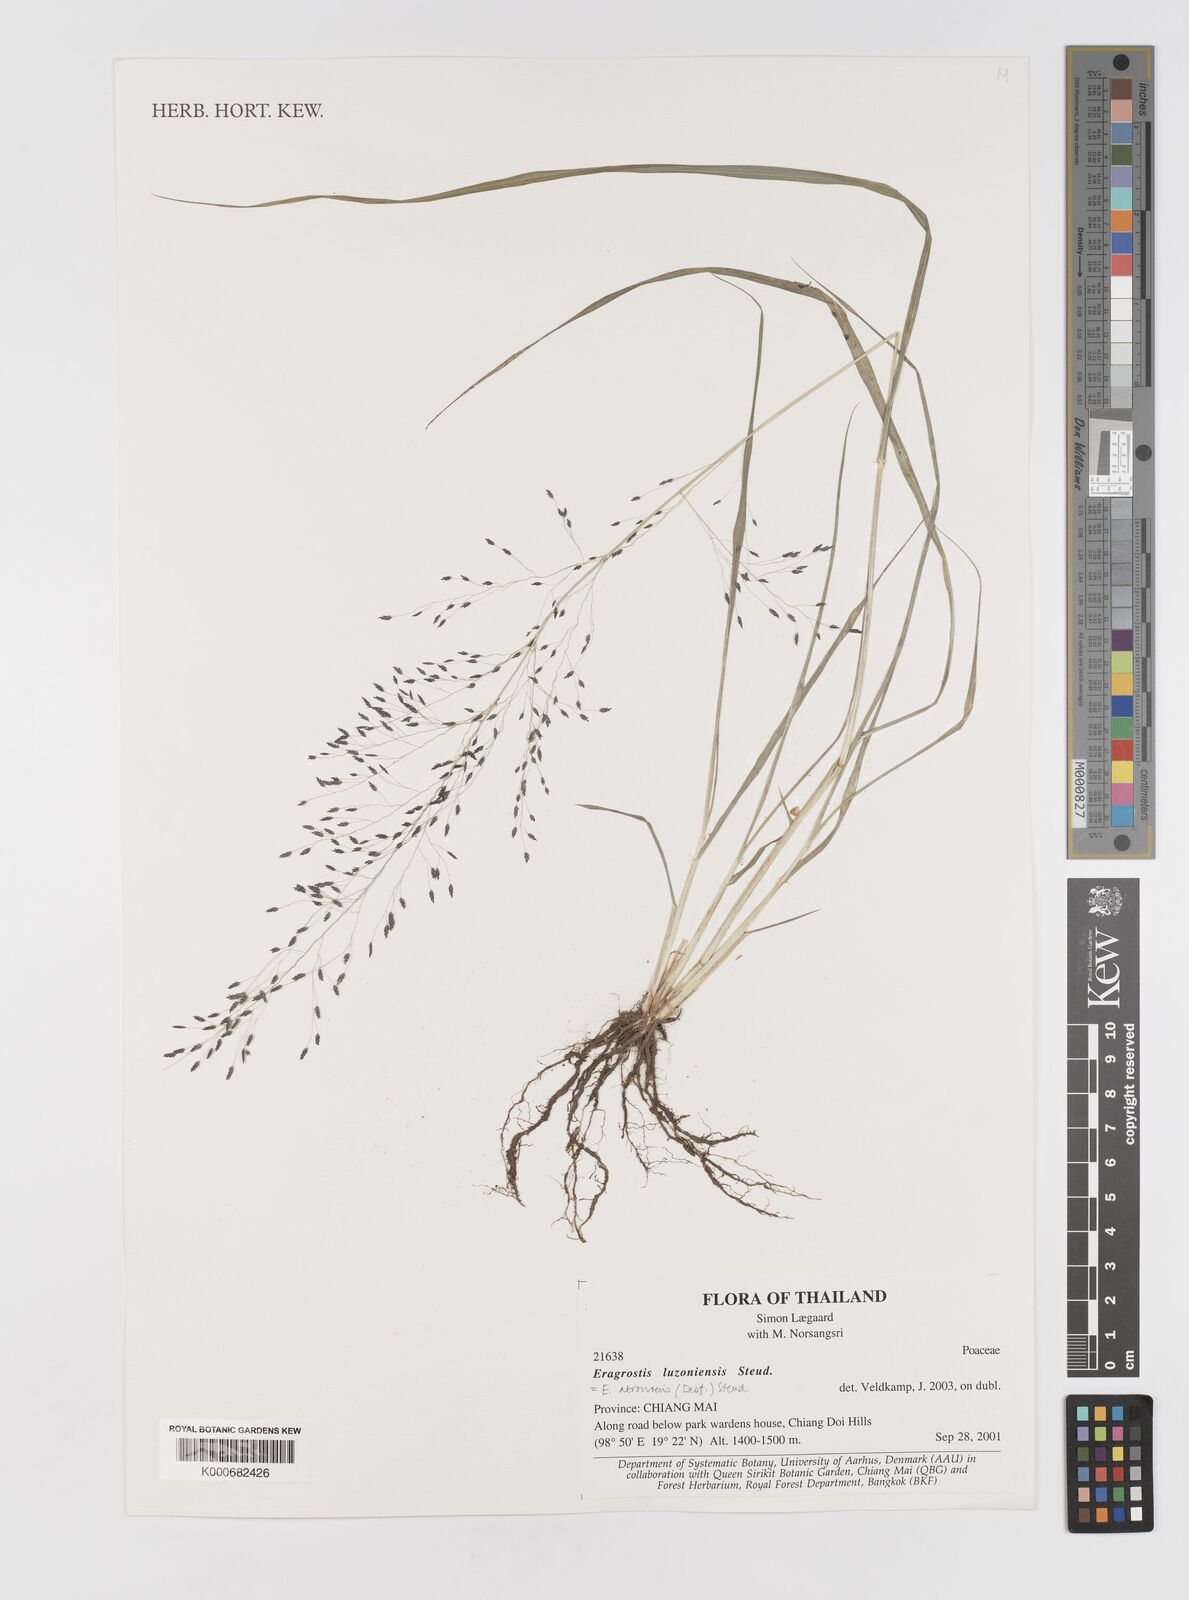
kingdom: Plantae
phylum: Tracheophyta
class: Liliopsida
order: Poales
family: Poaceae
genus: Eragrostis
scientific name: Eragrostis
